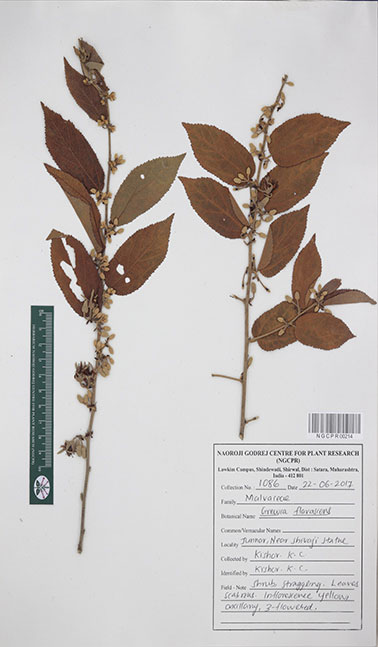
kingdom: Plantae
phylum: Tracheophyta
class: Magnoliopsida
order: Malvales
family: Malvaceae
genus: Grewia
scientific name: Grewia flavescens
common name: Sandpaper raisin
